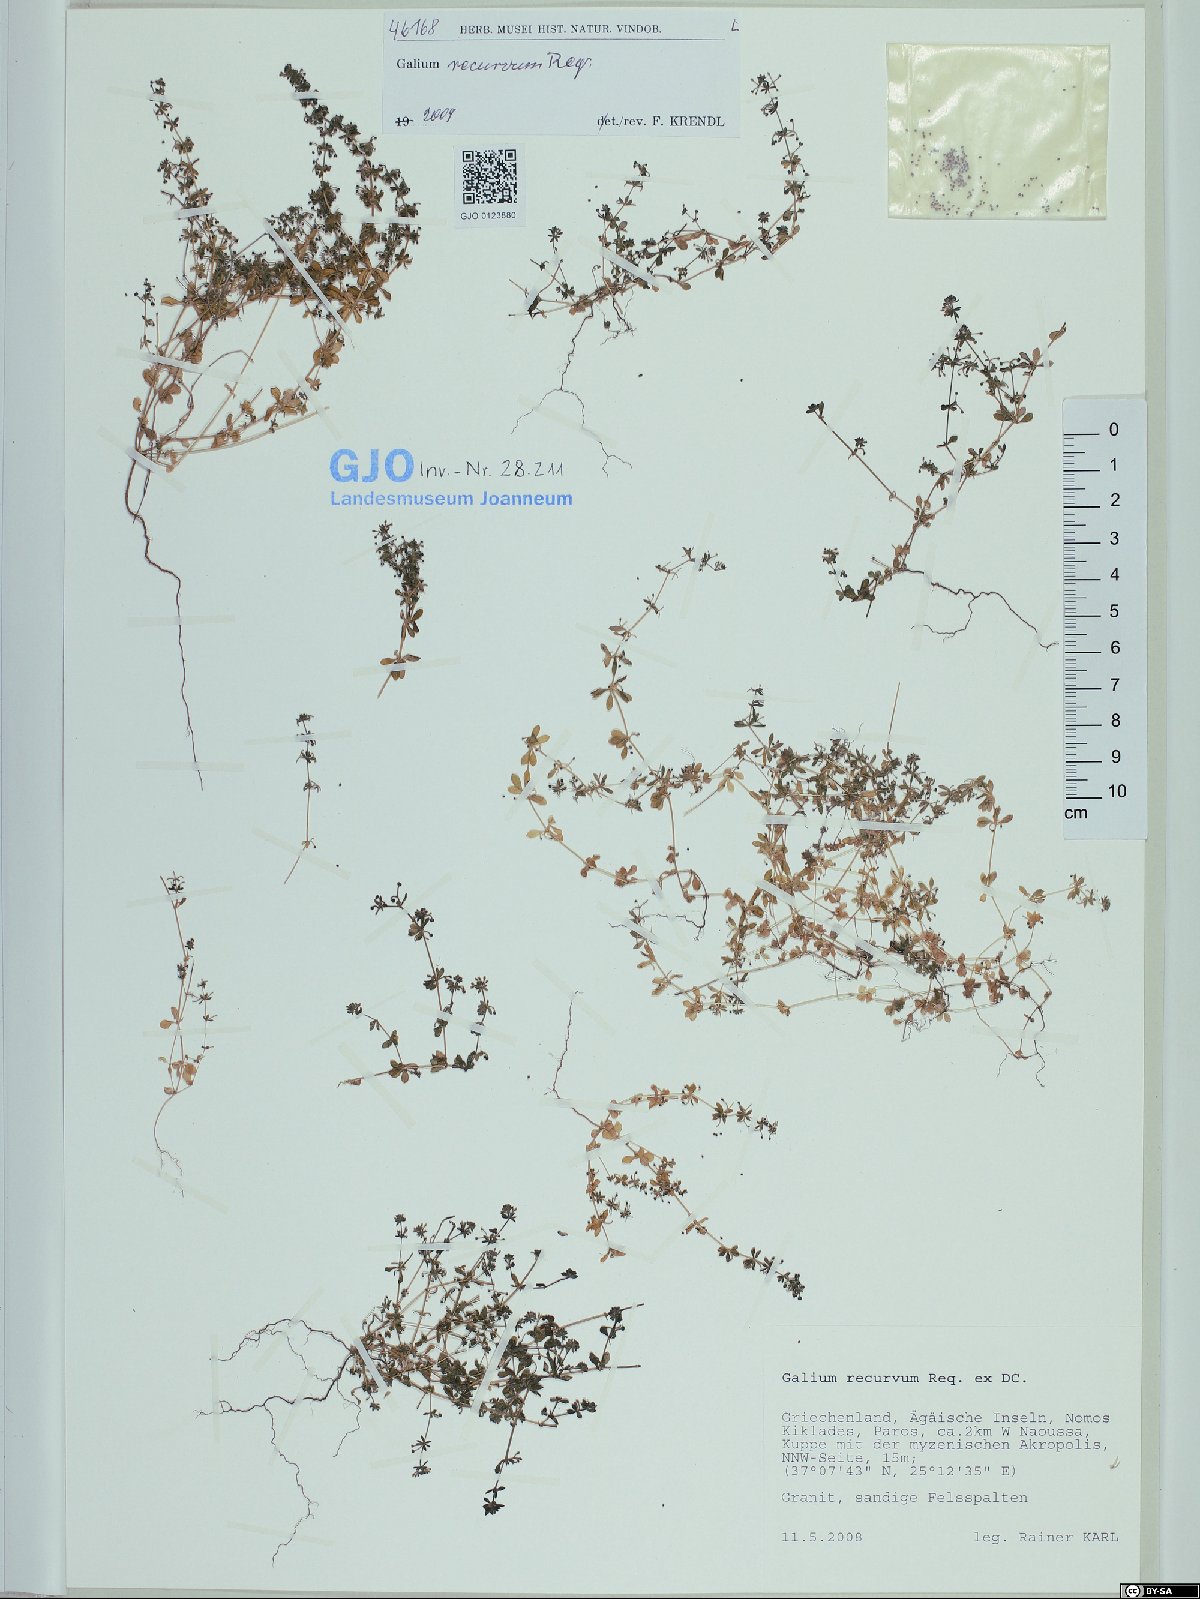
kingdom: Plantae
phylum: Tracheophyta
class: Magnoliopsida
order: Gentianales
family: Rubiaceae
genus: Galium
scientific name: Galium caminianum
